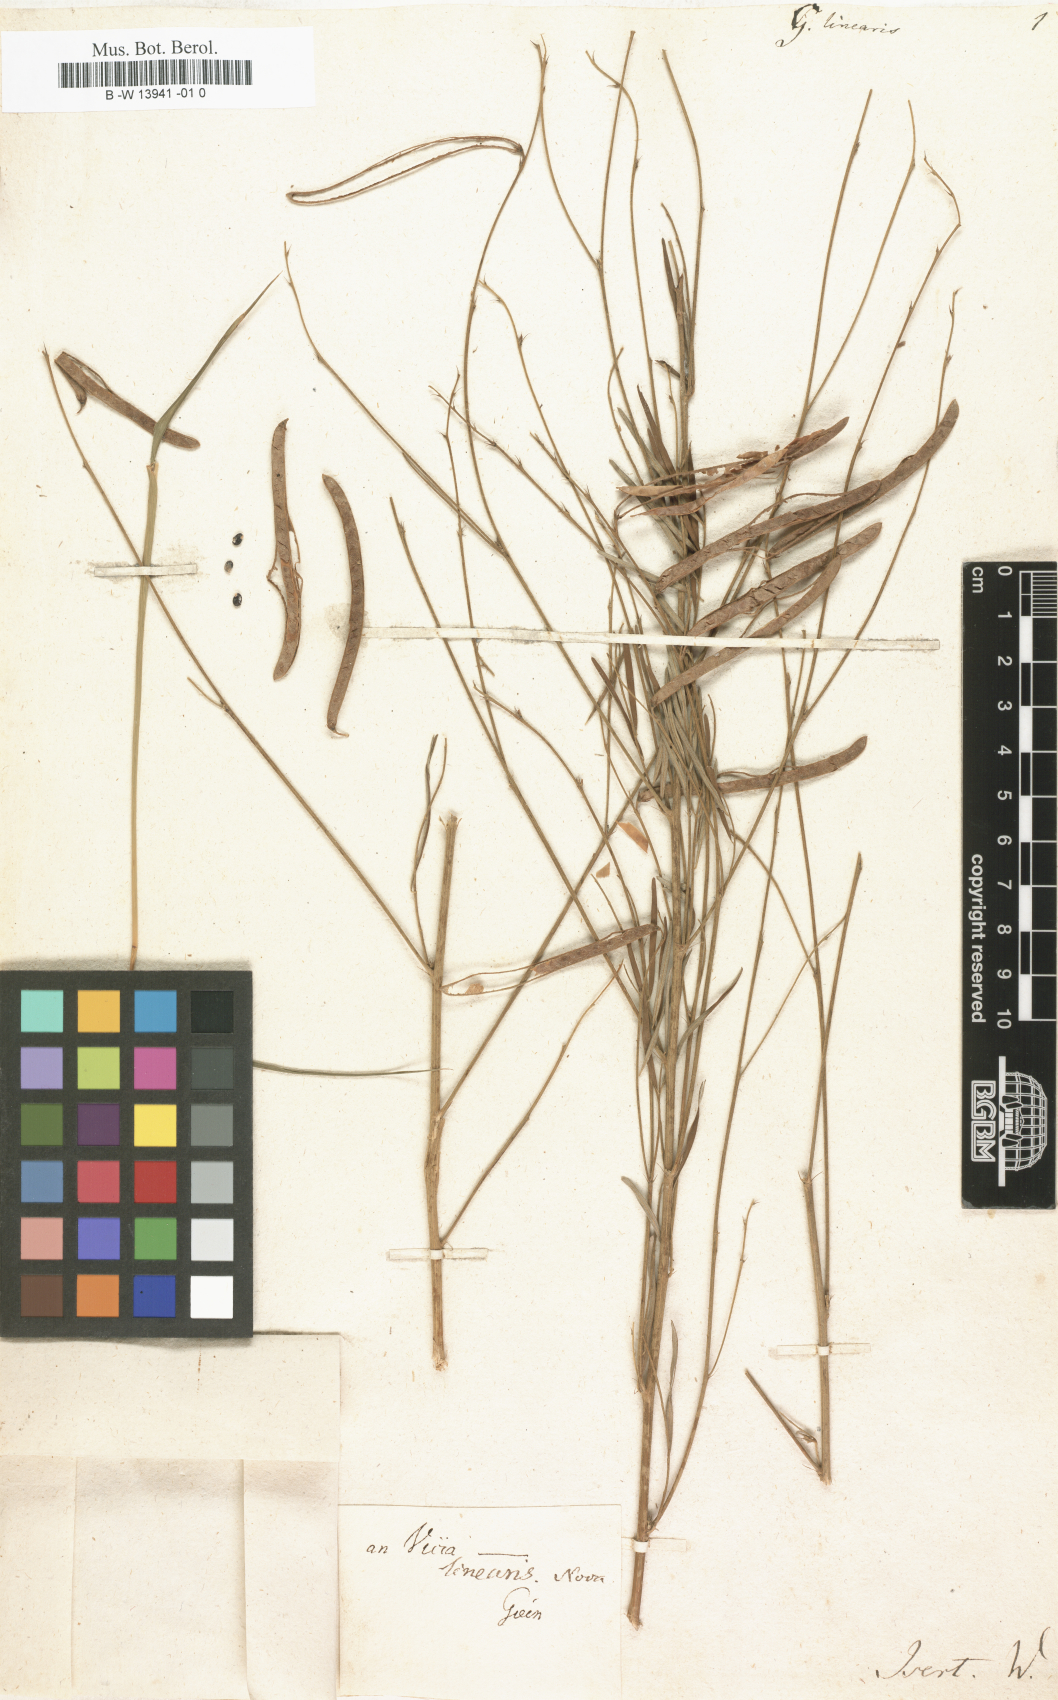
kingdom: Plantae
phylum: Tracheophyta
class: Magnoliopsida
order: Fabales
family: Fabaceae
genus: Tephrosia
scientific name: Tephrosia linearis
